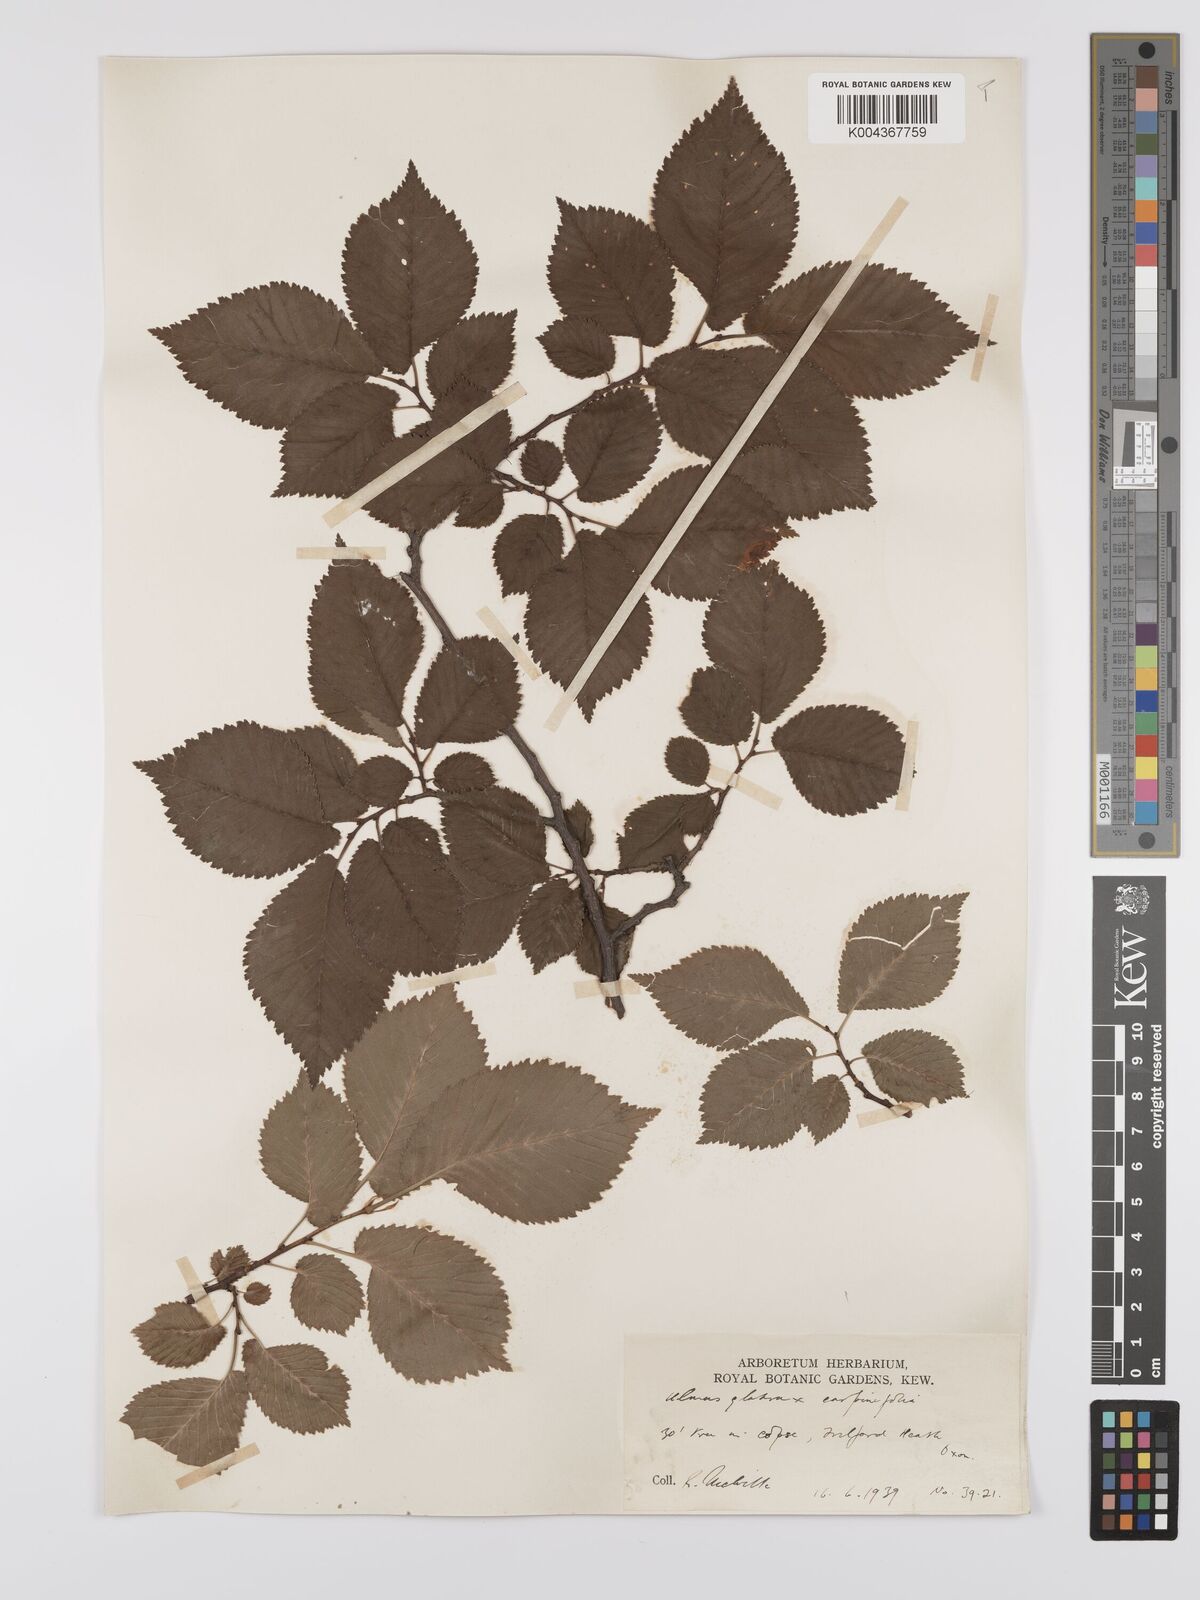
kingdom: Plantae
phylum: Tracheophyta
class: Magnoliopsida
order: Rosales
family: Ulmaceae
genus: Ulmus
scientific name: Ulmus
